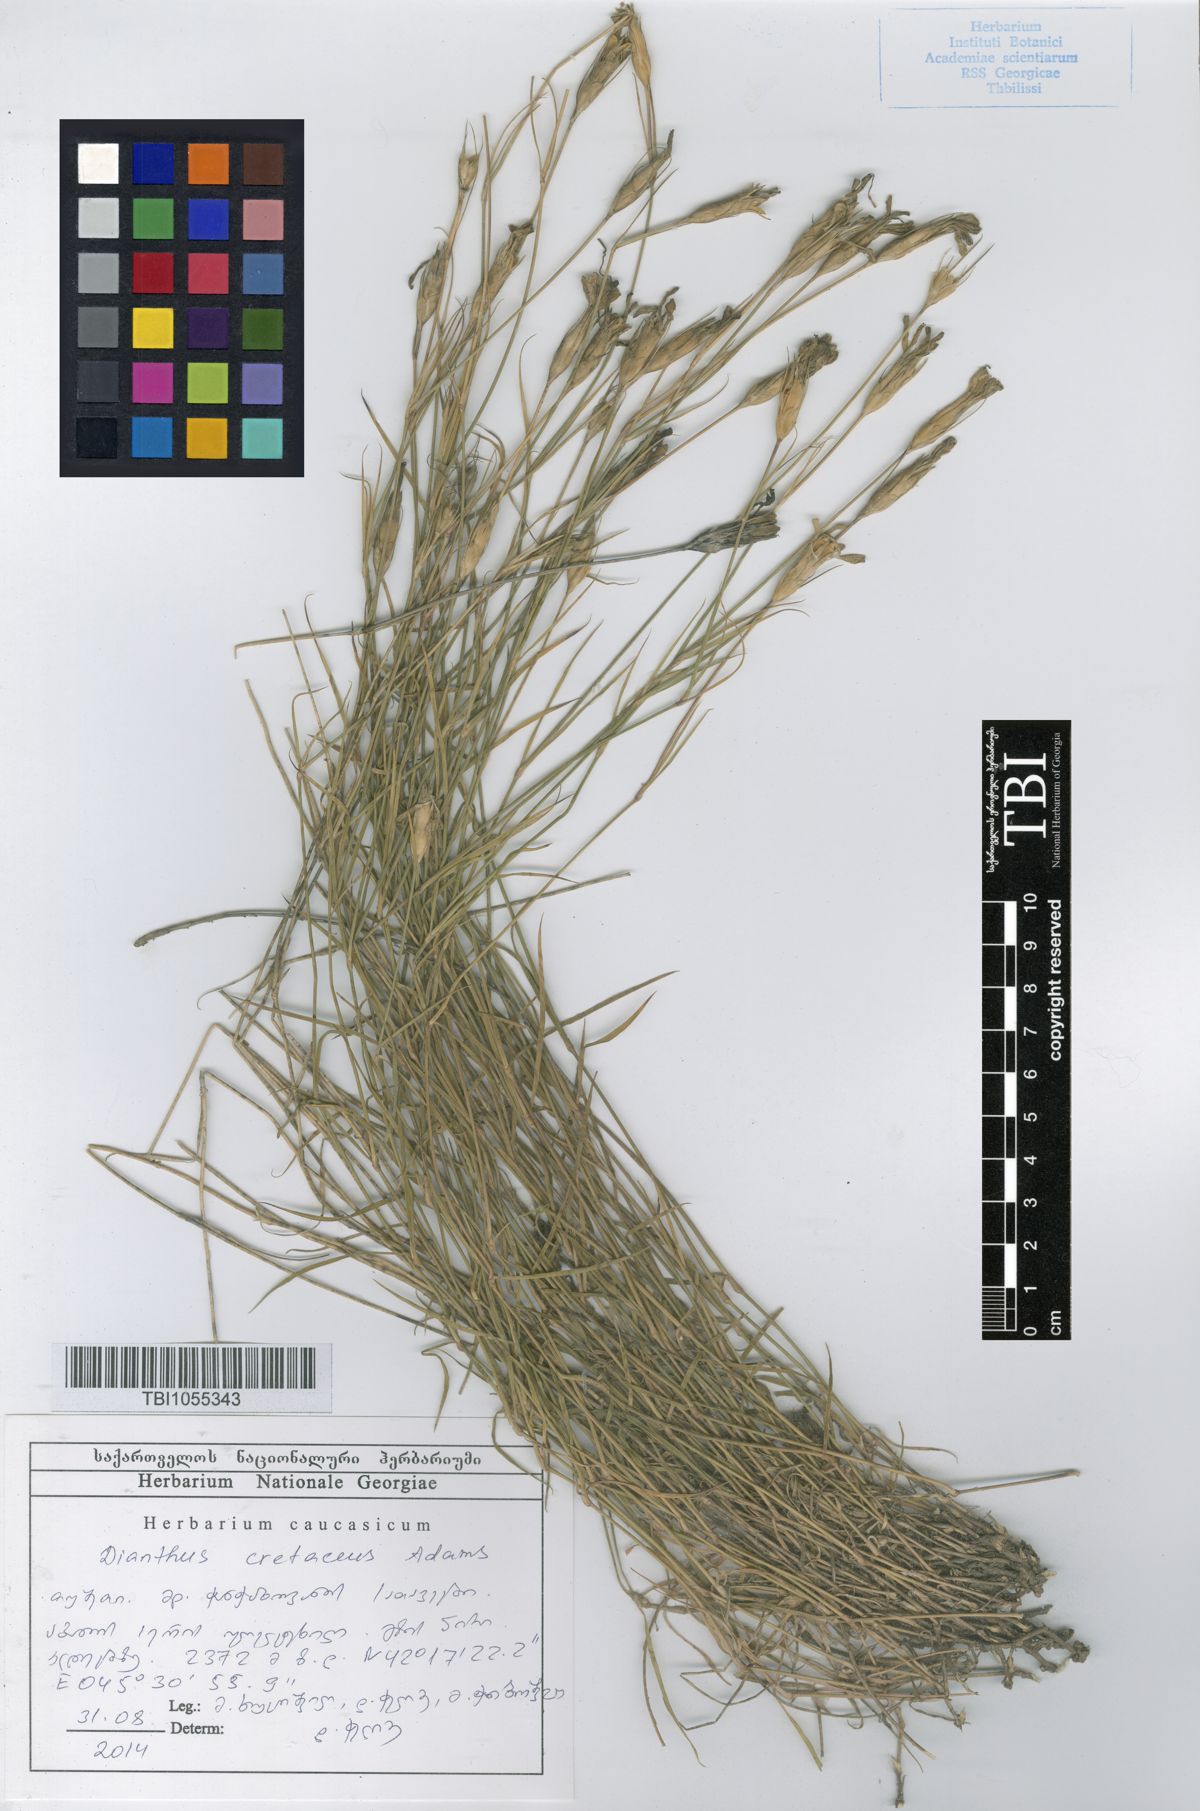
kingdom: Plantae
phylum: Tracheophyta
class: Magnoliopsida
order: Caryophyllales
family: Caryophyllaceae
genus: Dianthus
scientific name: Dianthus cretaceus
